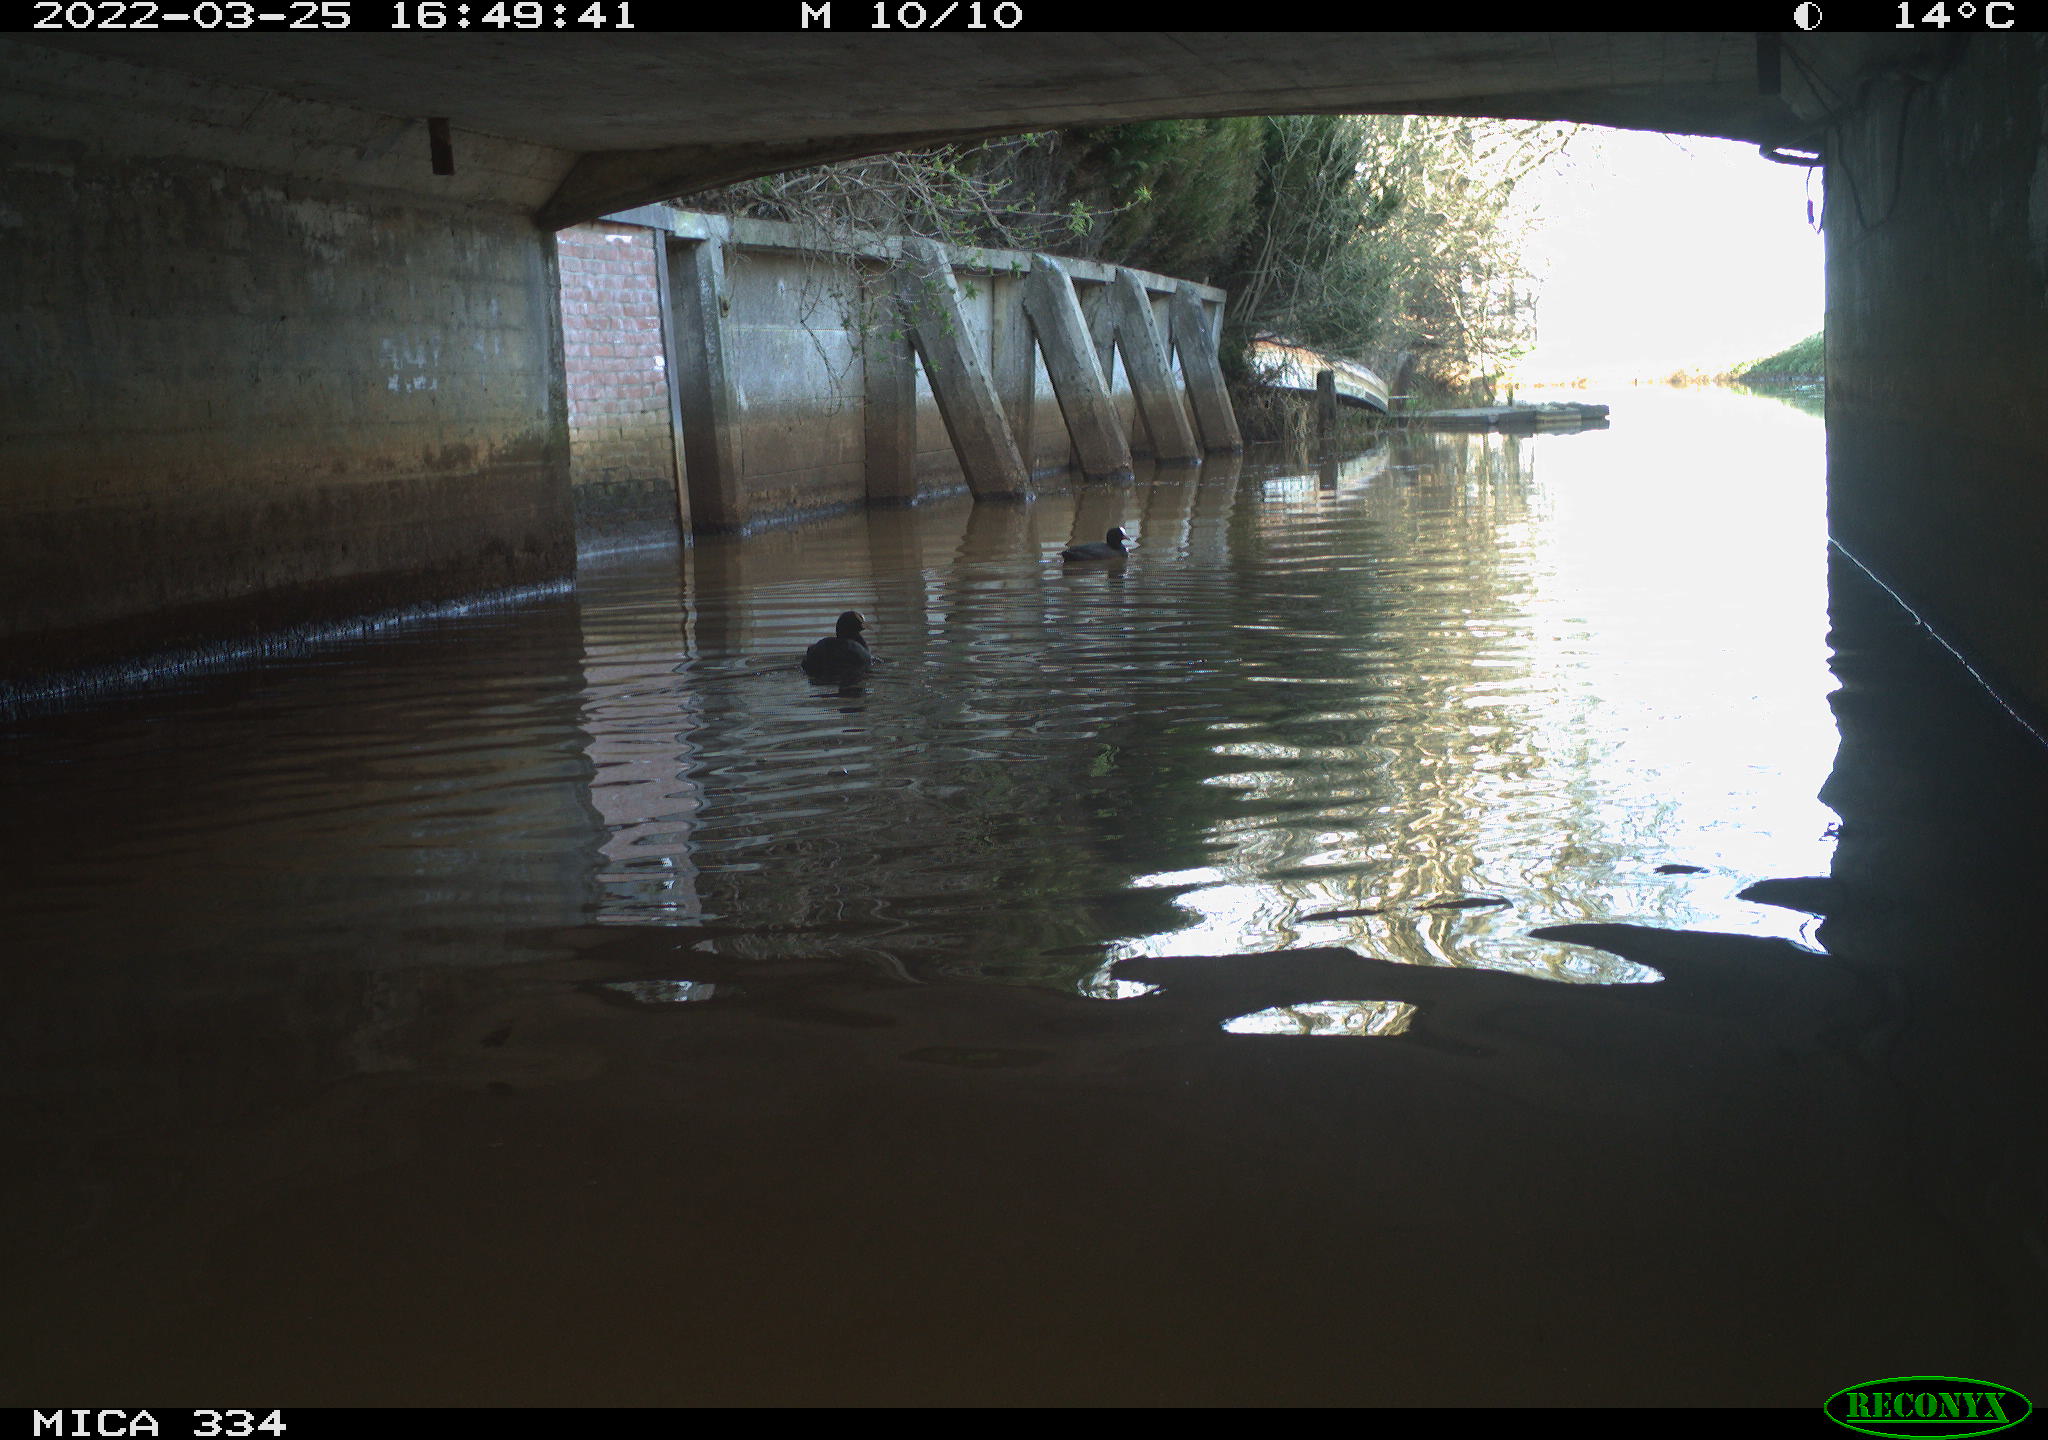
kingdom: Animalia
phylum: Chordata
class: Aves
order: Gruiformes
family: Rallidae
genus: Fulica
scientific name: Fulica atra
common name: Eurasian coot
